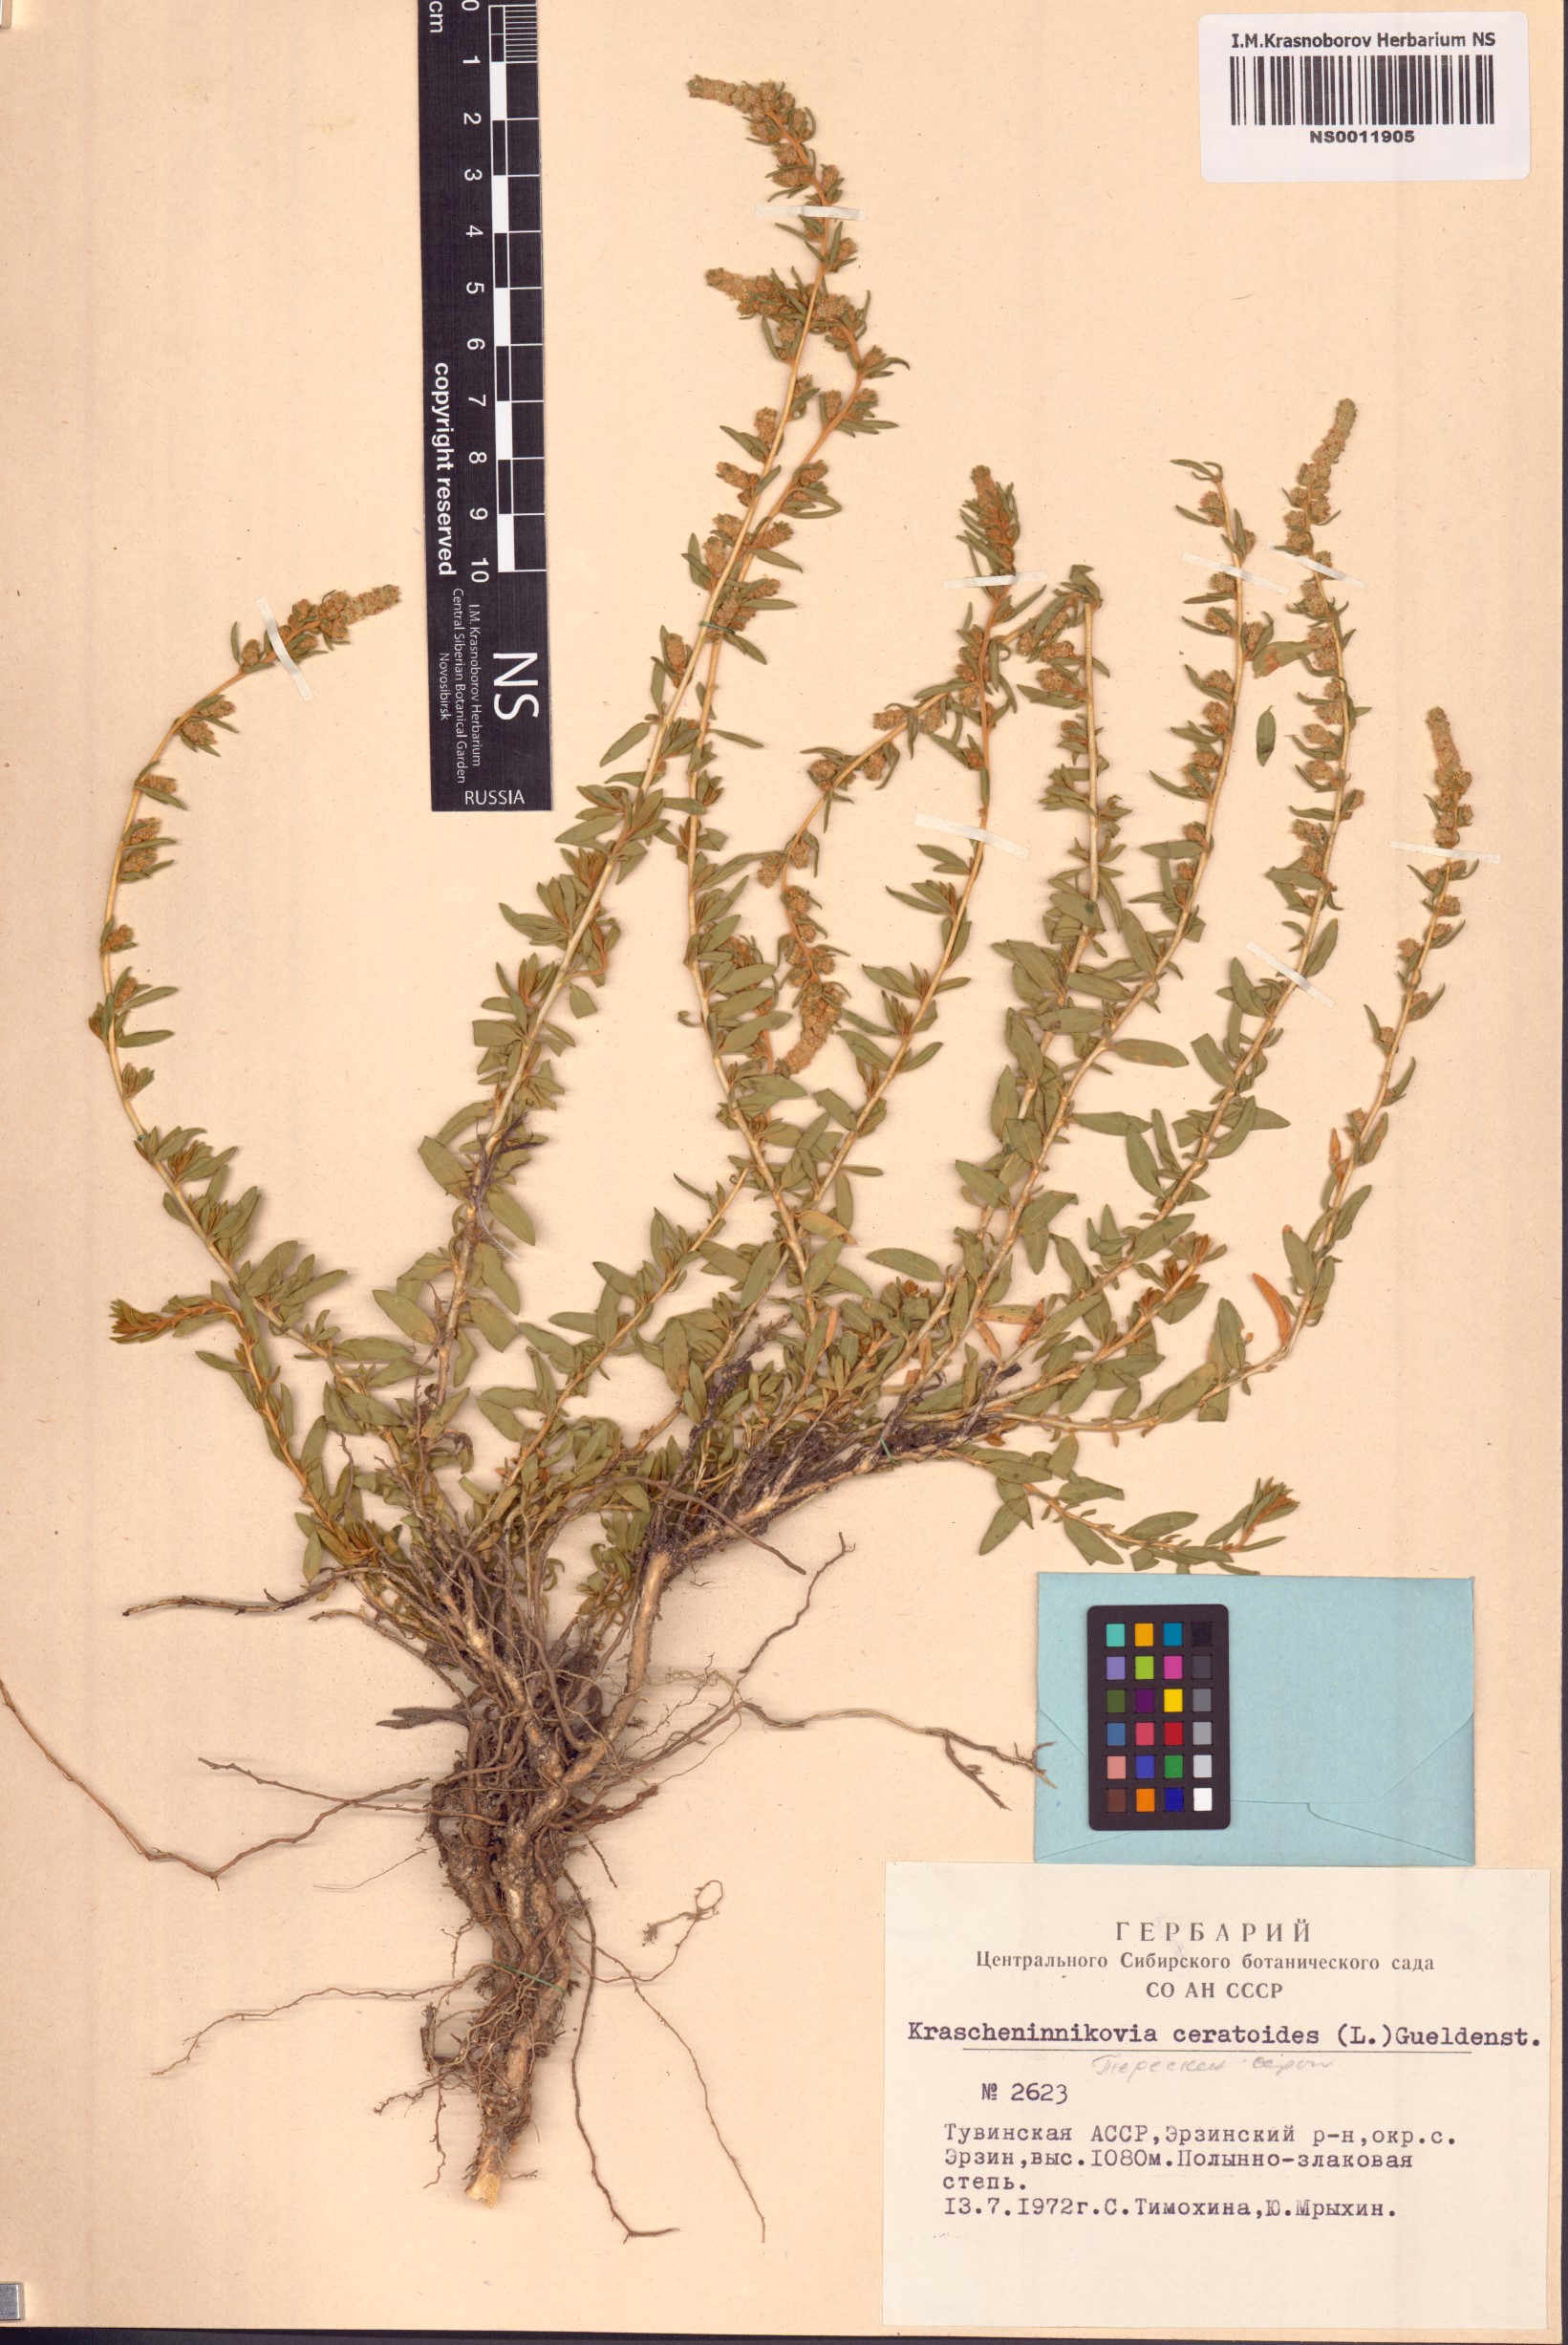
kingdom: Plantae
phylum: Tracheophyta
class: Magnoliopsida
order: Caryophyllales
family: Amaranthaceae
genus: Krascheninnikovia
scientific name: Krascheninnikovia ceratoides
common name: Pamirian winterfat
